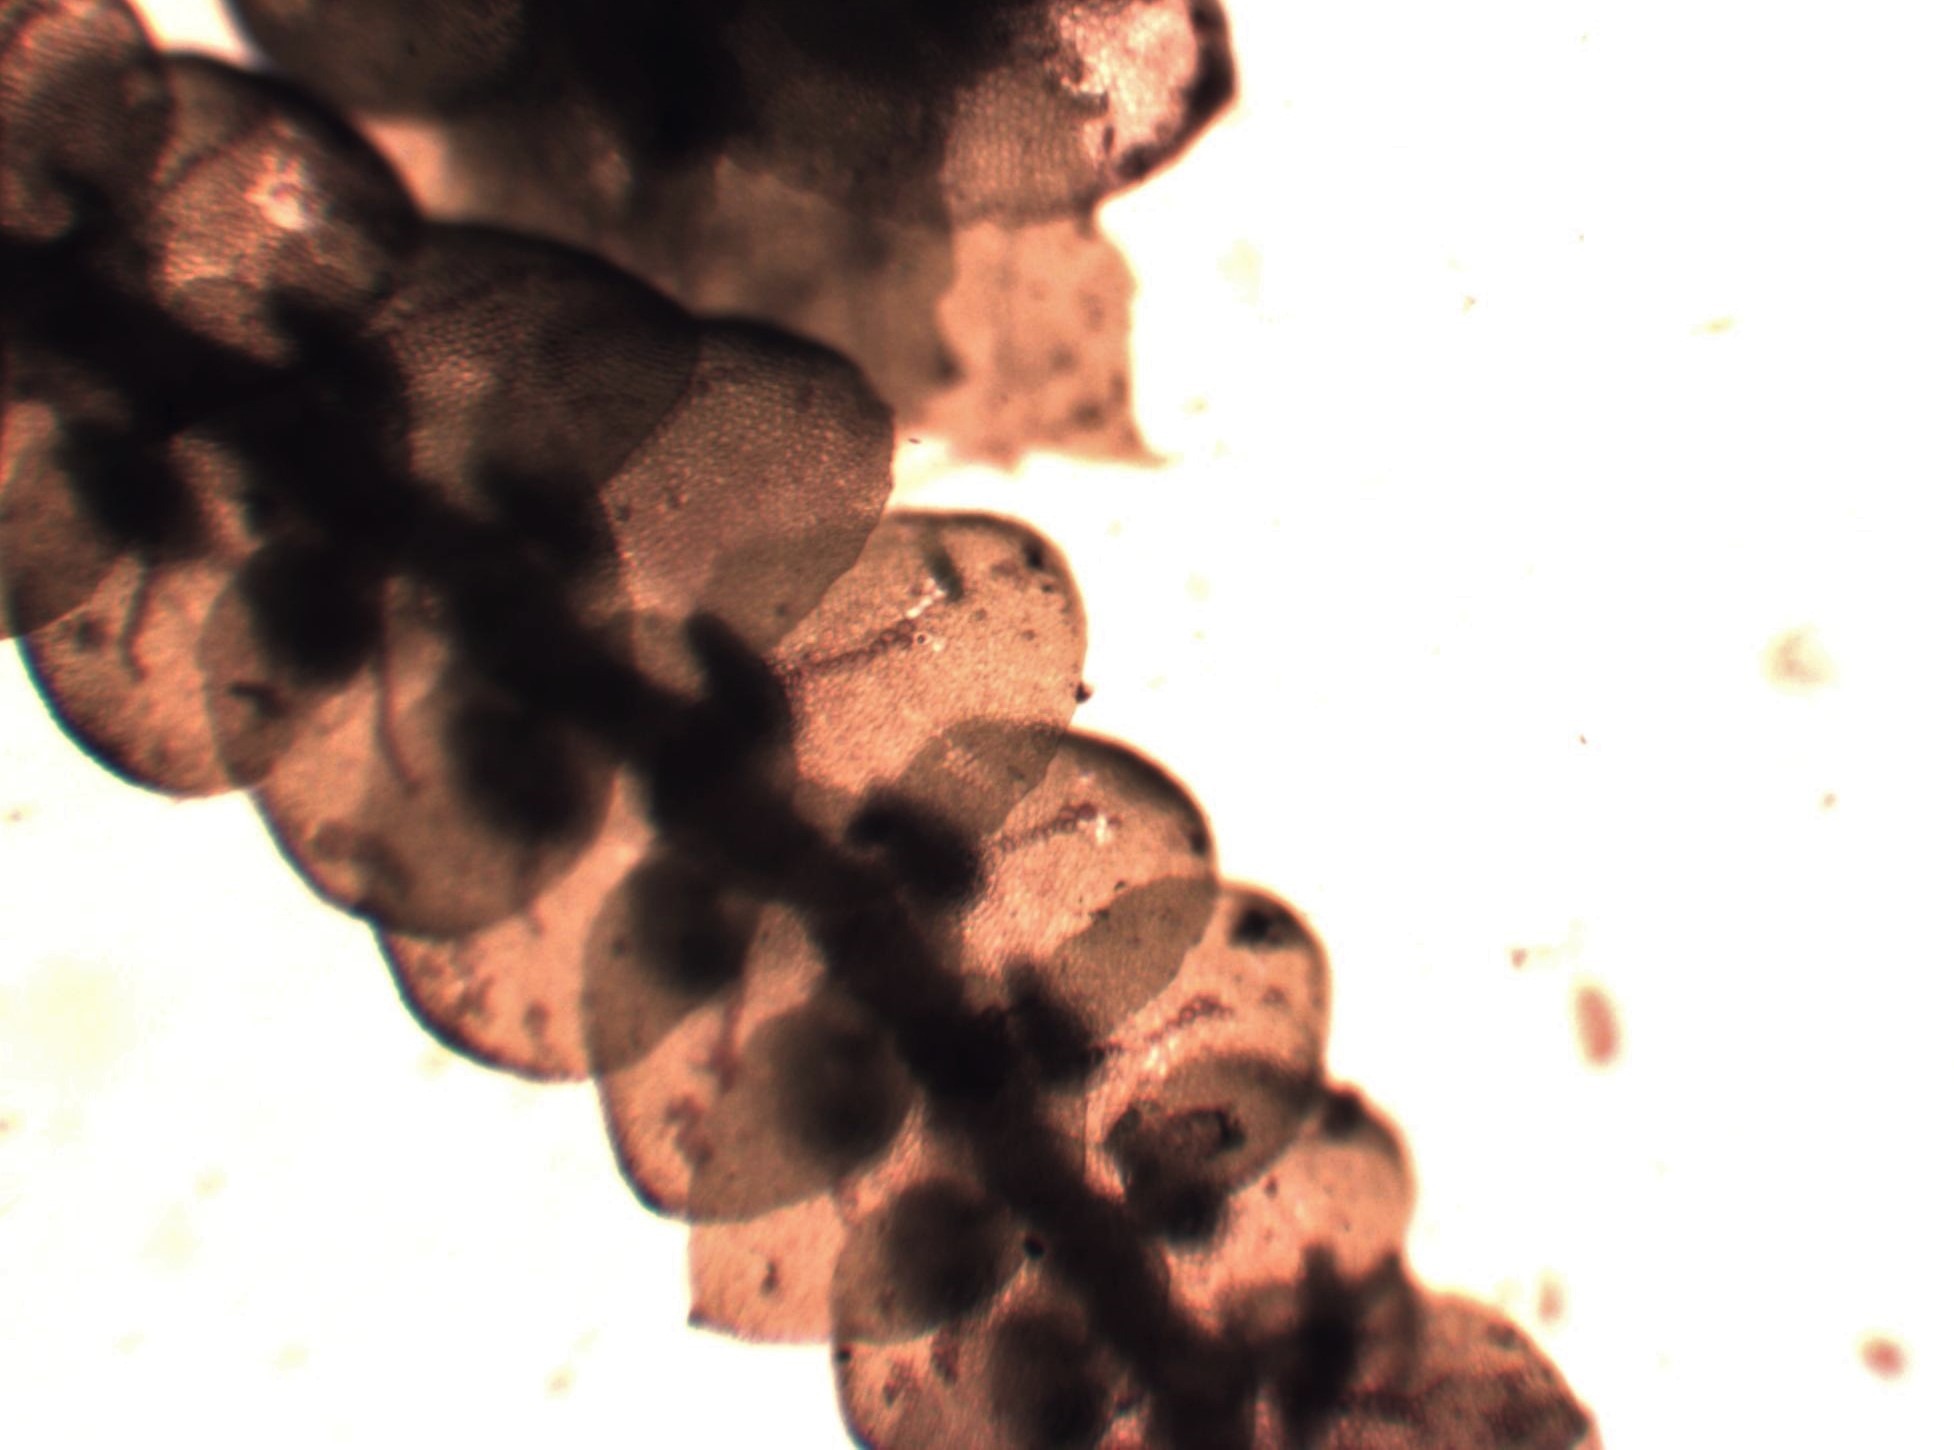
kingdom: Plantae
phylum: Marchantiophyta
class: Jungermanniopsida
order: Porellales
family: Frullaniaceae
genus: Frullania
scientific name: Frullania tamarisci
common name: Glinsende bronzemos
